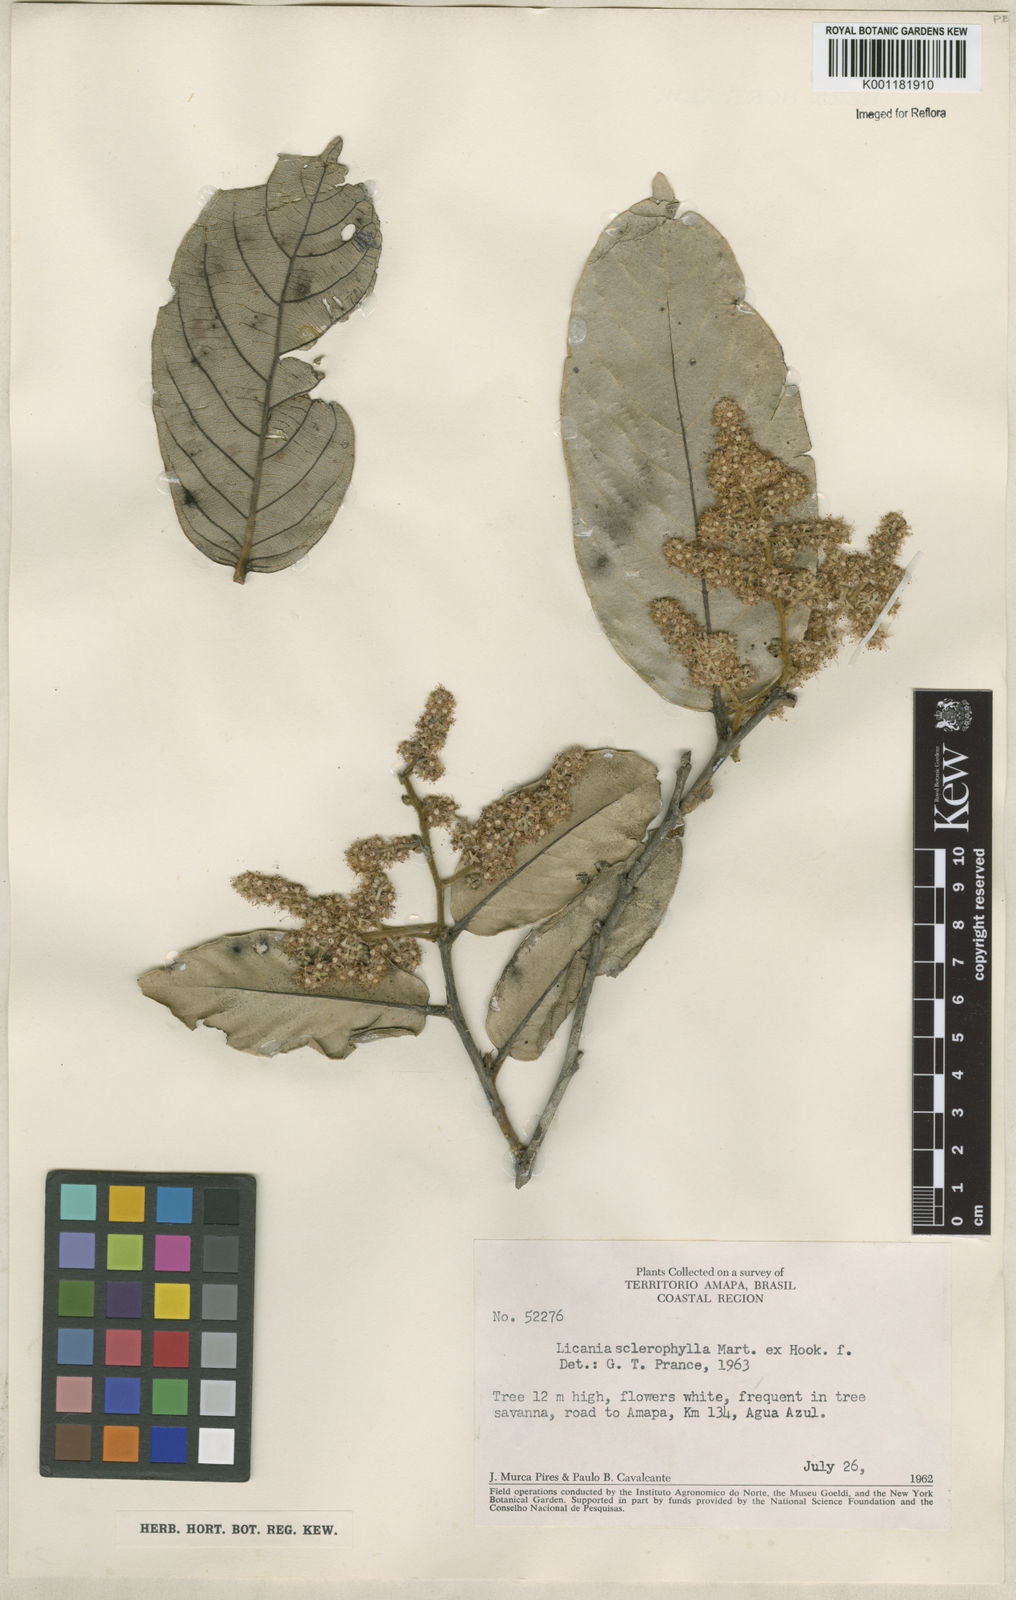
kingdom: Plantae
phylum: Tracheophyta
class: Magnoliopsida
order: Malpighiales
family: Chrysobalanaceae
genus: Leptobalanus
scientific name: Leptobalanus sclerophyllus
